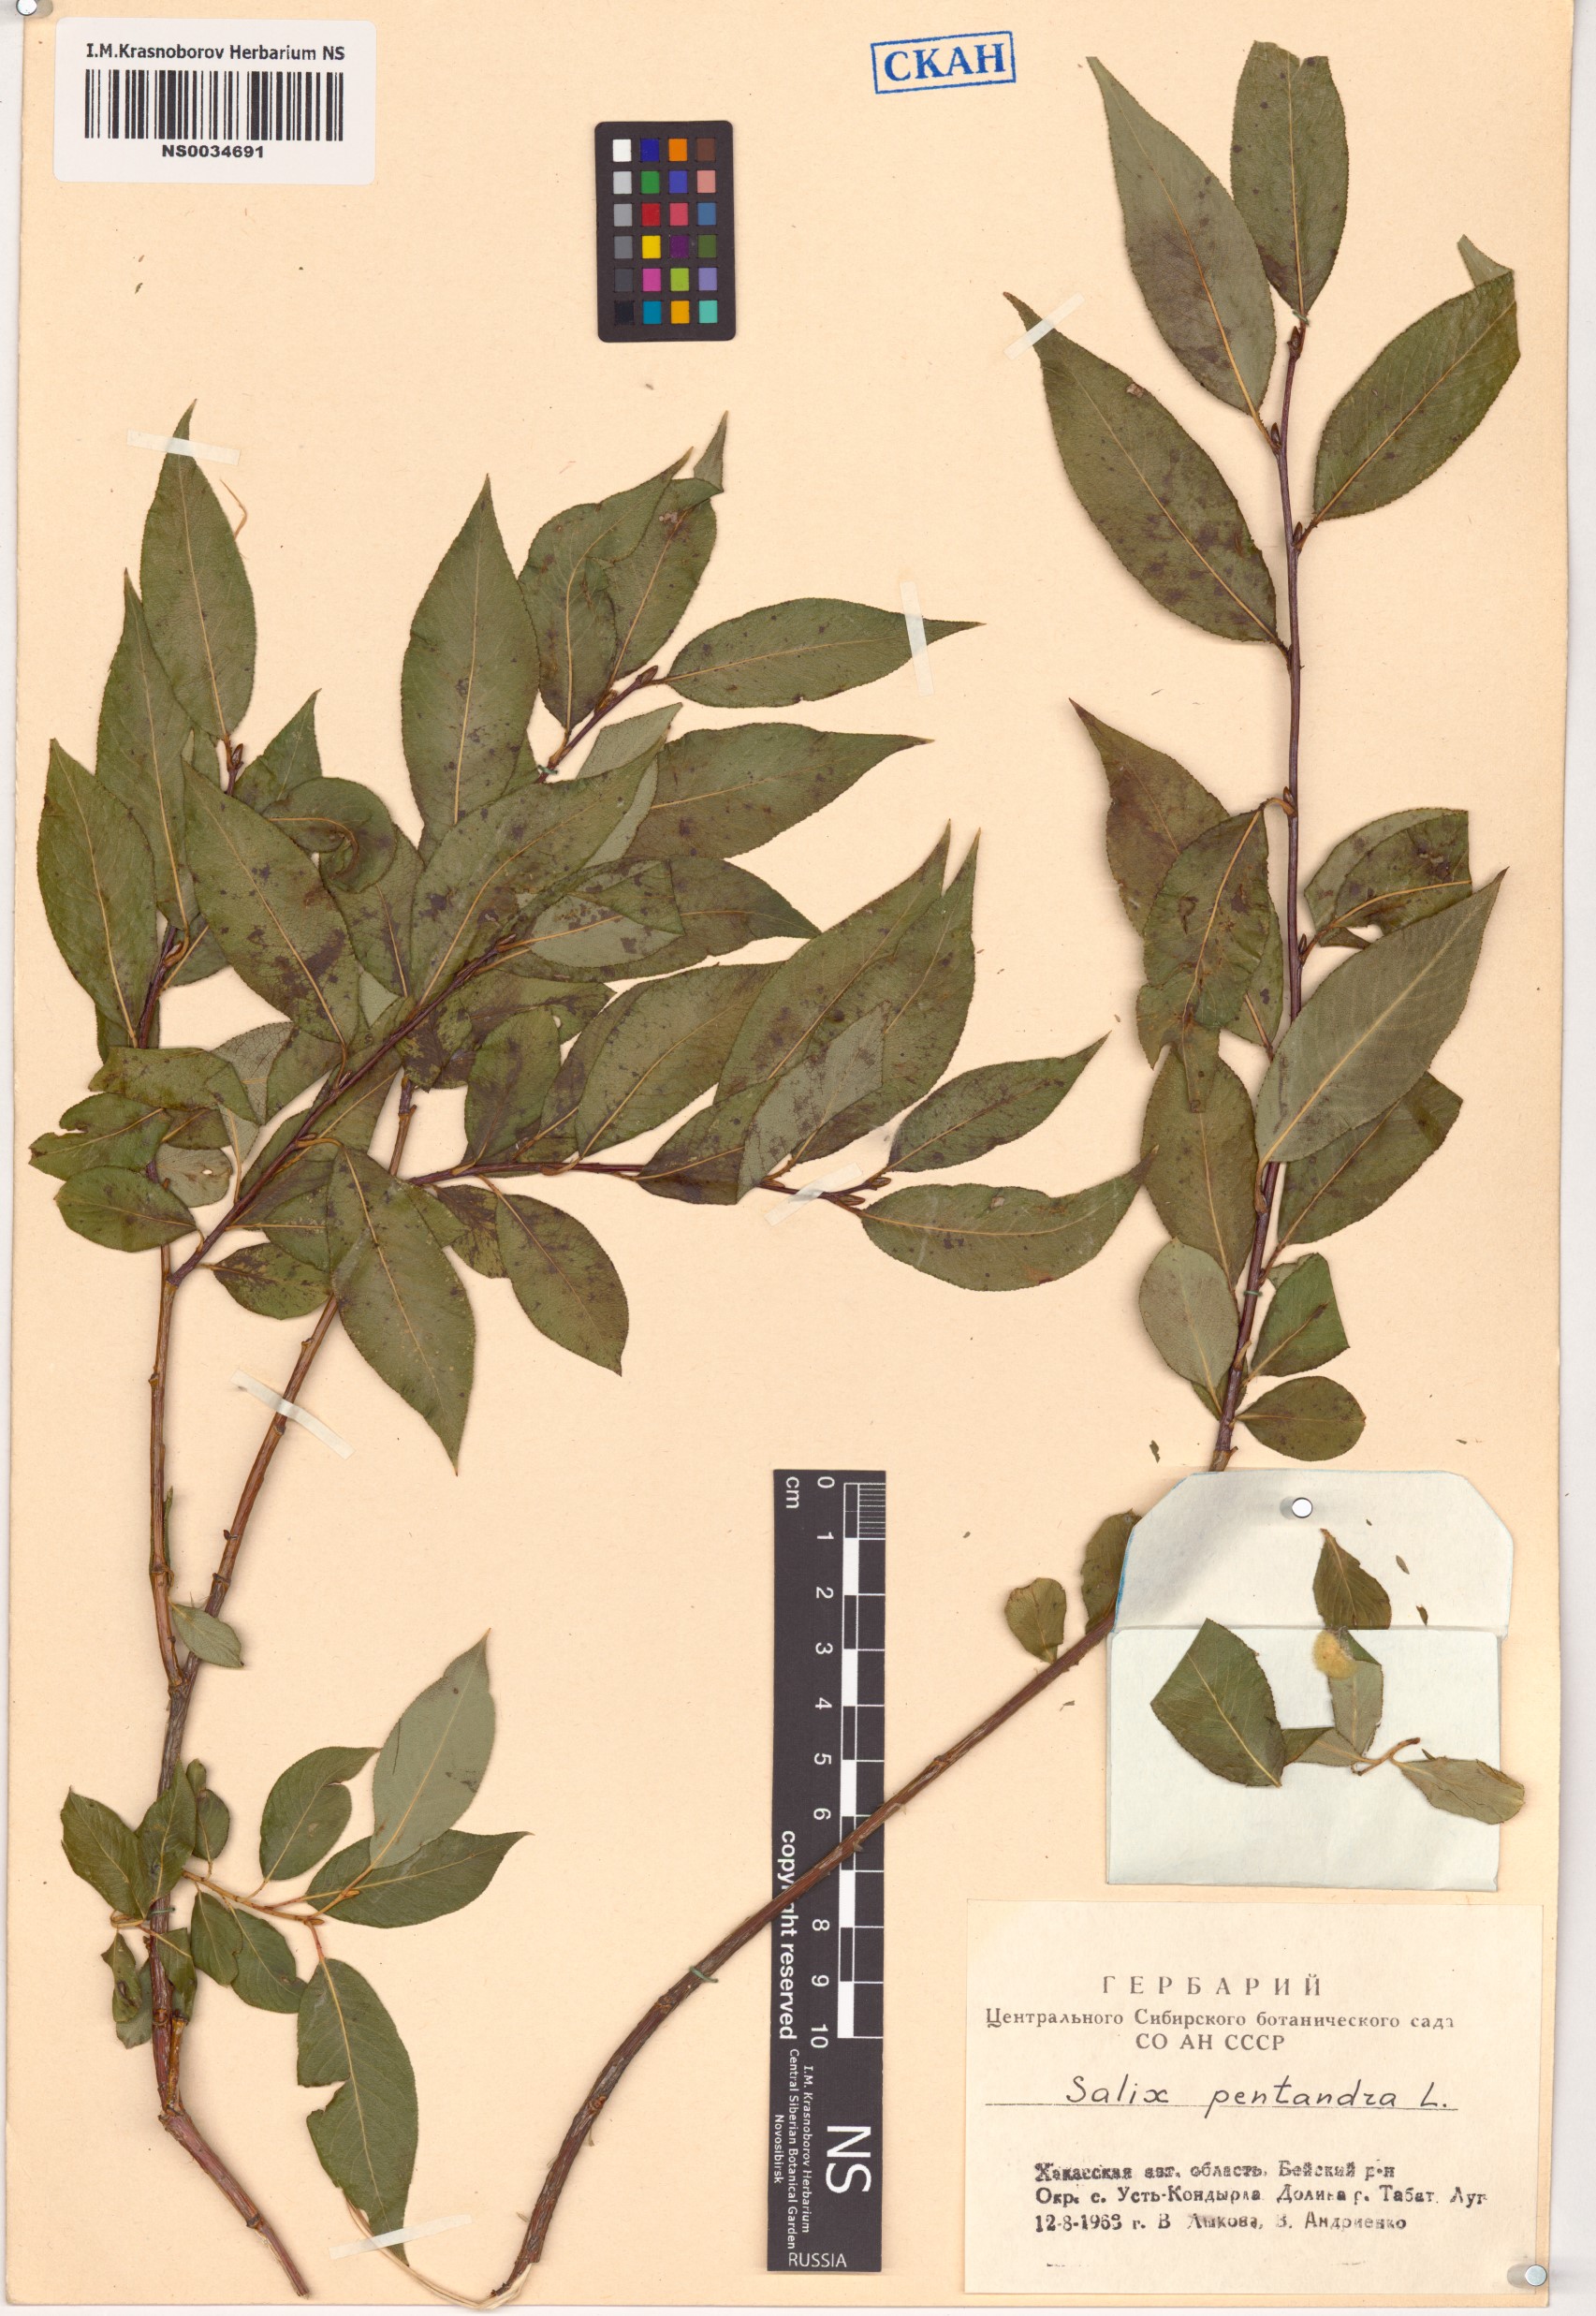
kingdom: Plantae
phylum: Tracheophyta
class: Magnoliopsida
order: Malpighiales
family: Salicaceae
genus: Salix
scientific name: Salix pentandra
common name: Bay willow
